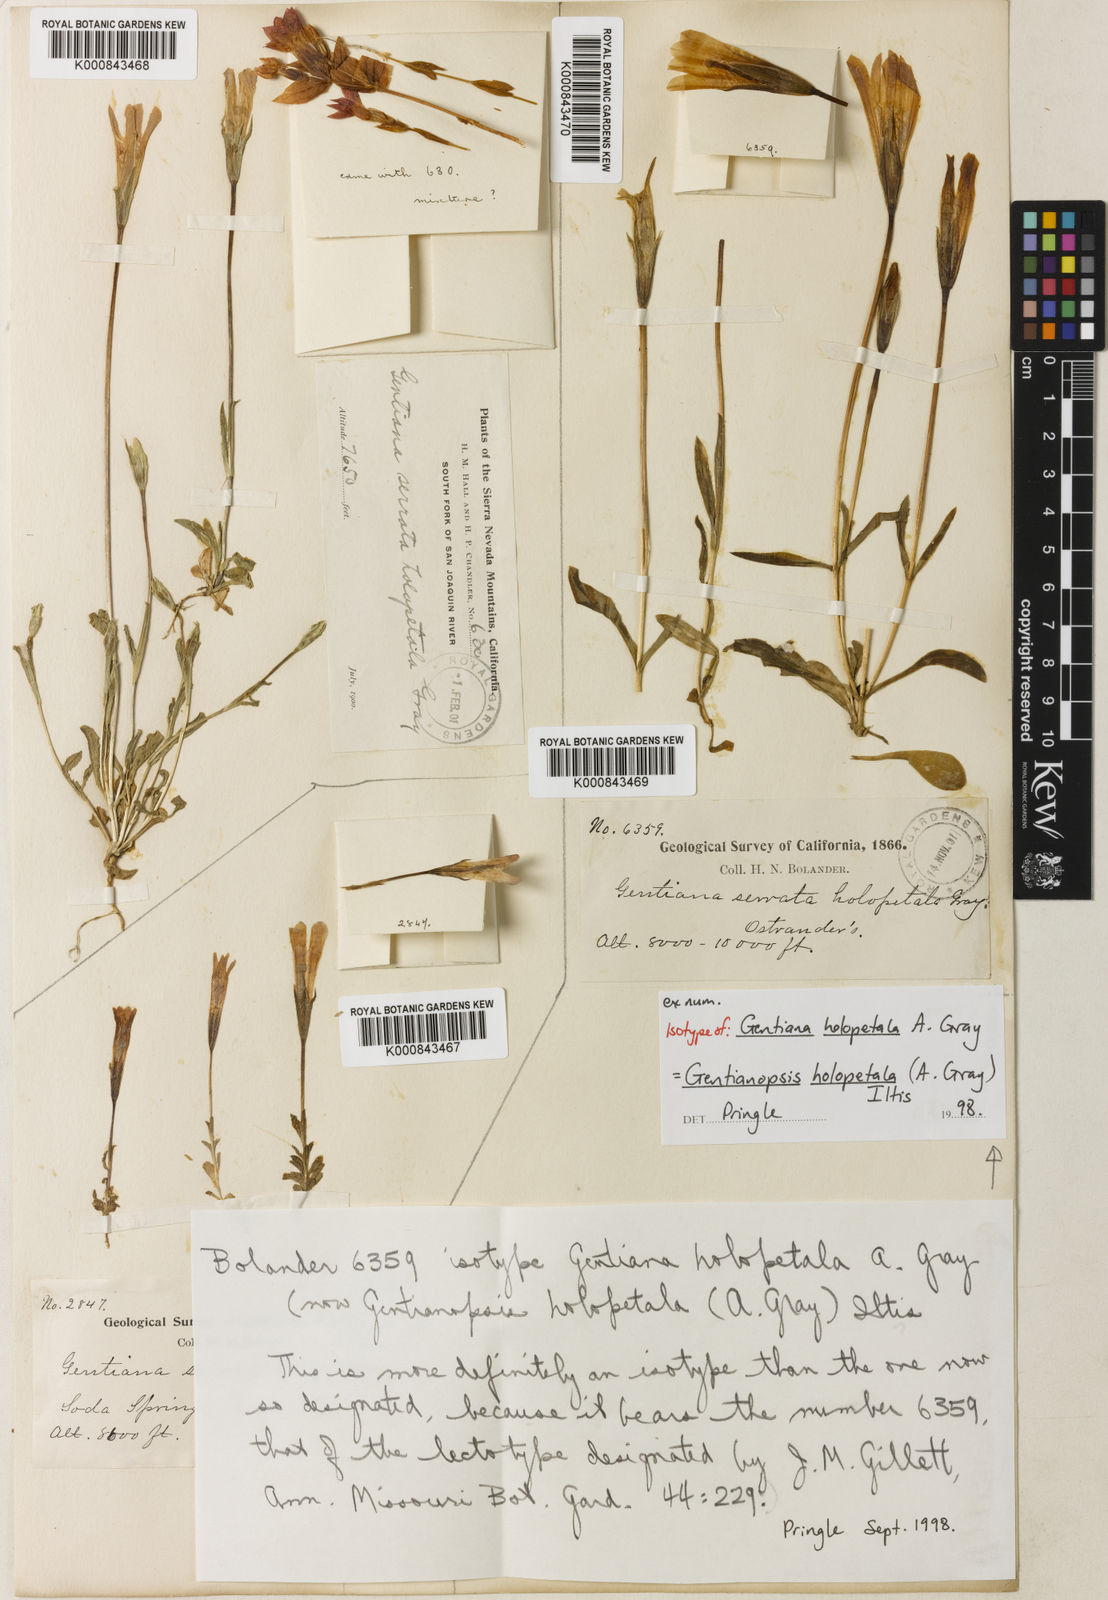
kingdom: Plantae
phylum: Tracheophyta
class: Magnoliopsida
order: Gentianales
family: Gentianaceae
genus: Gentianopsis
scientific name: Gentianopsis holopetala
